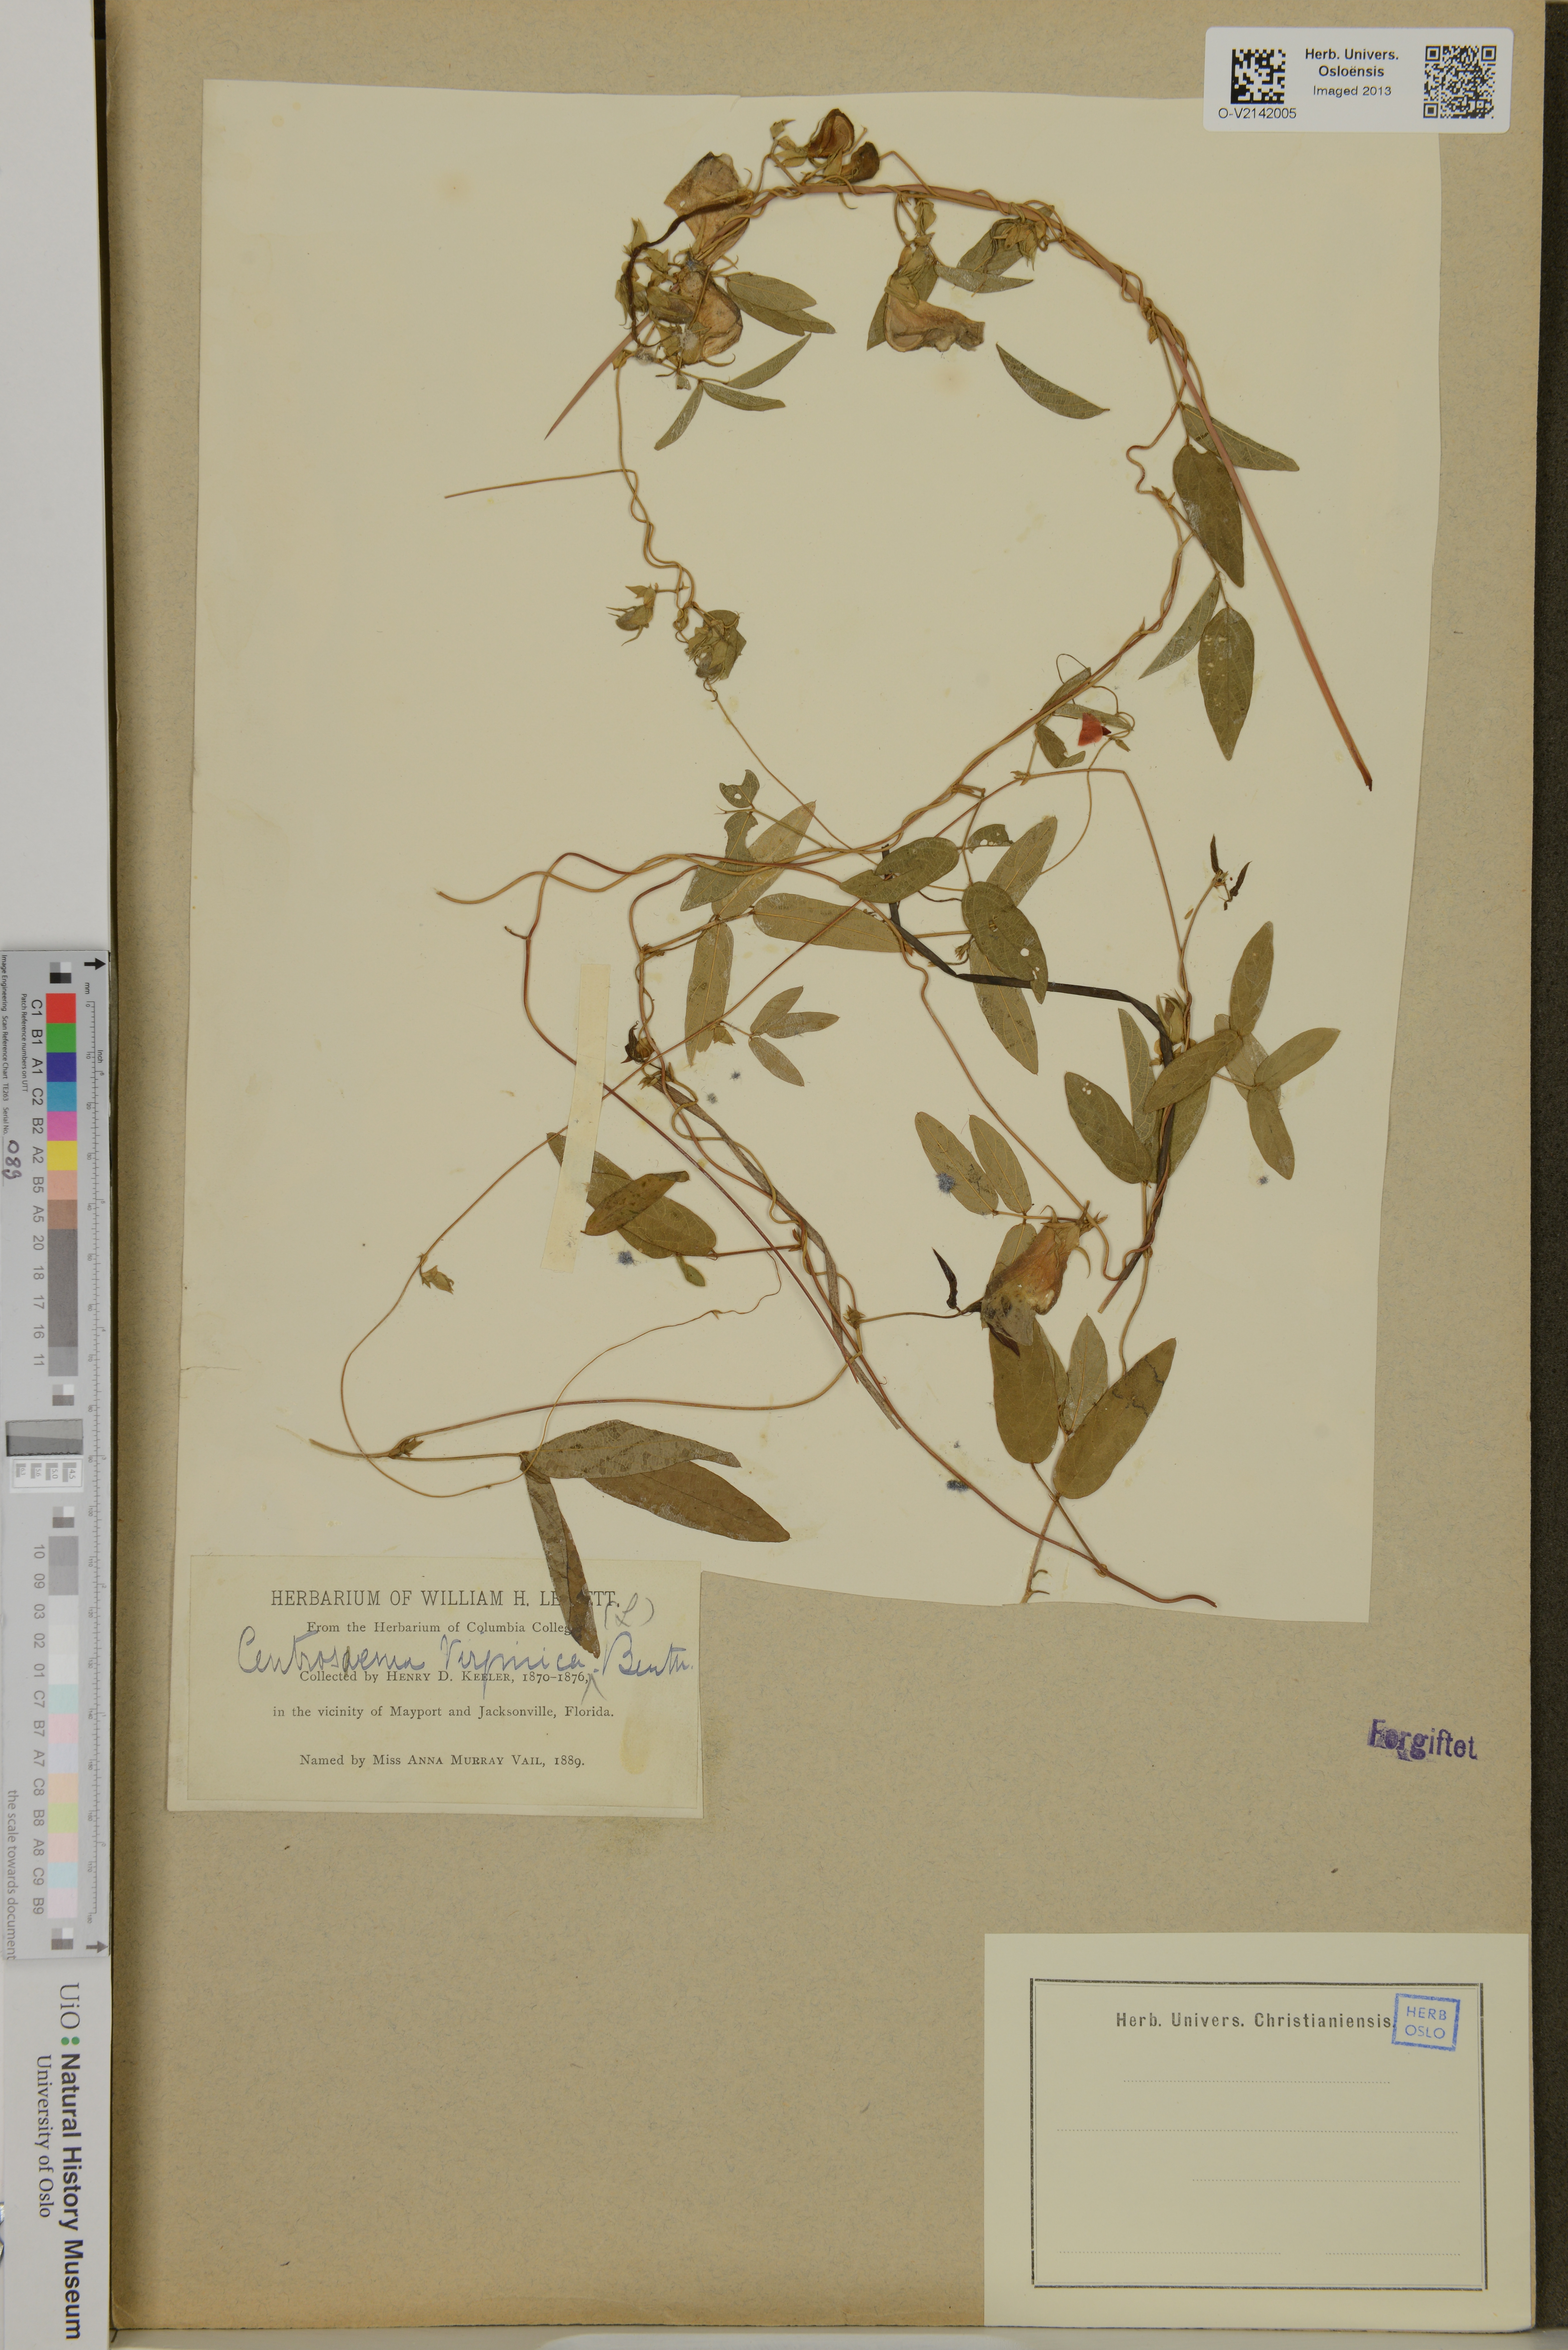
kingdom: Plantae
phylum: Tracheophyta
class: Magnoliopsida
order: Fabales
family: Fabaceae
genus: Centrosema
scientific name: Centrosema
